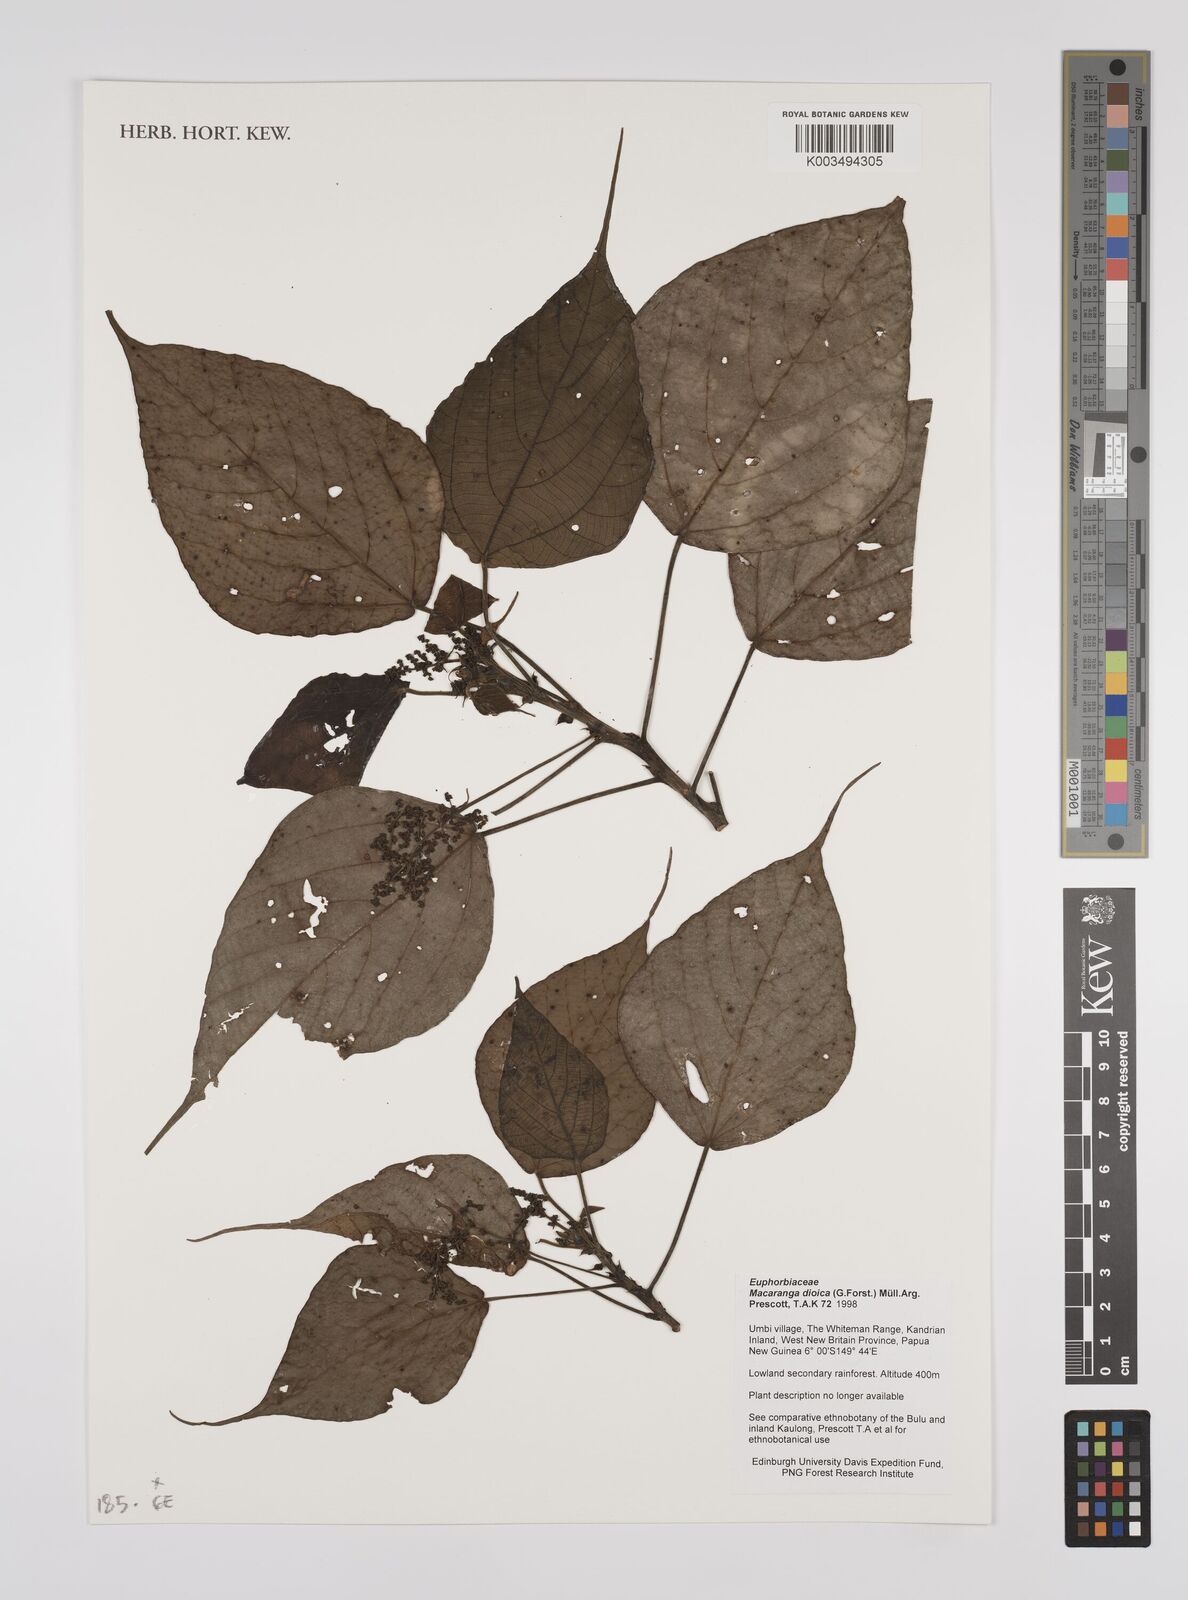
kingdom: Plantae
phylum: Tracheophyta
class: Magnoliopsida
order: Malpighiales
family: Euphorbiaceae
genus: Macaranga
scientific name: Macaranga dioica
